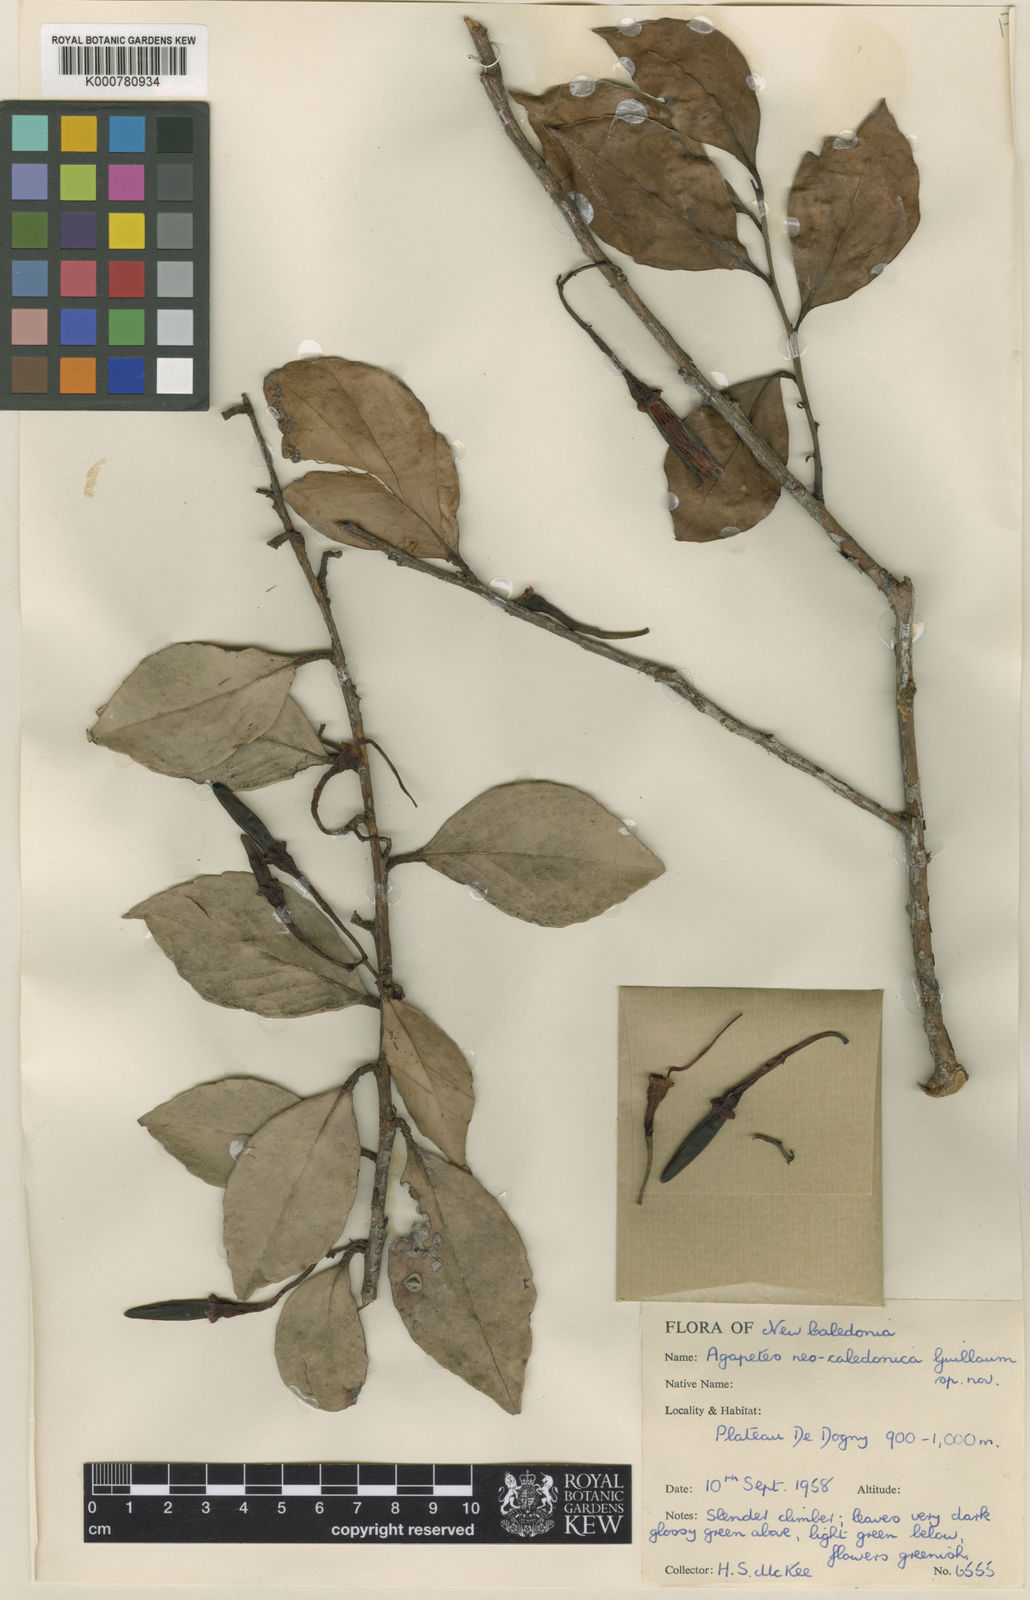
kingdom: Plantae
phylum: Tracheophyta
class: Magnoliopsida
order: Ericales
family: Ericaceae
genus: Paphia
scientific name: Paphia neocaledonica
